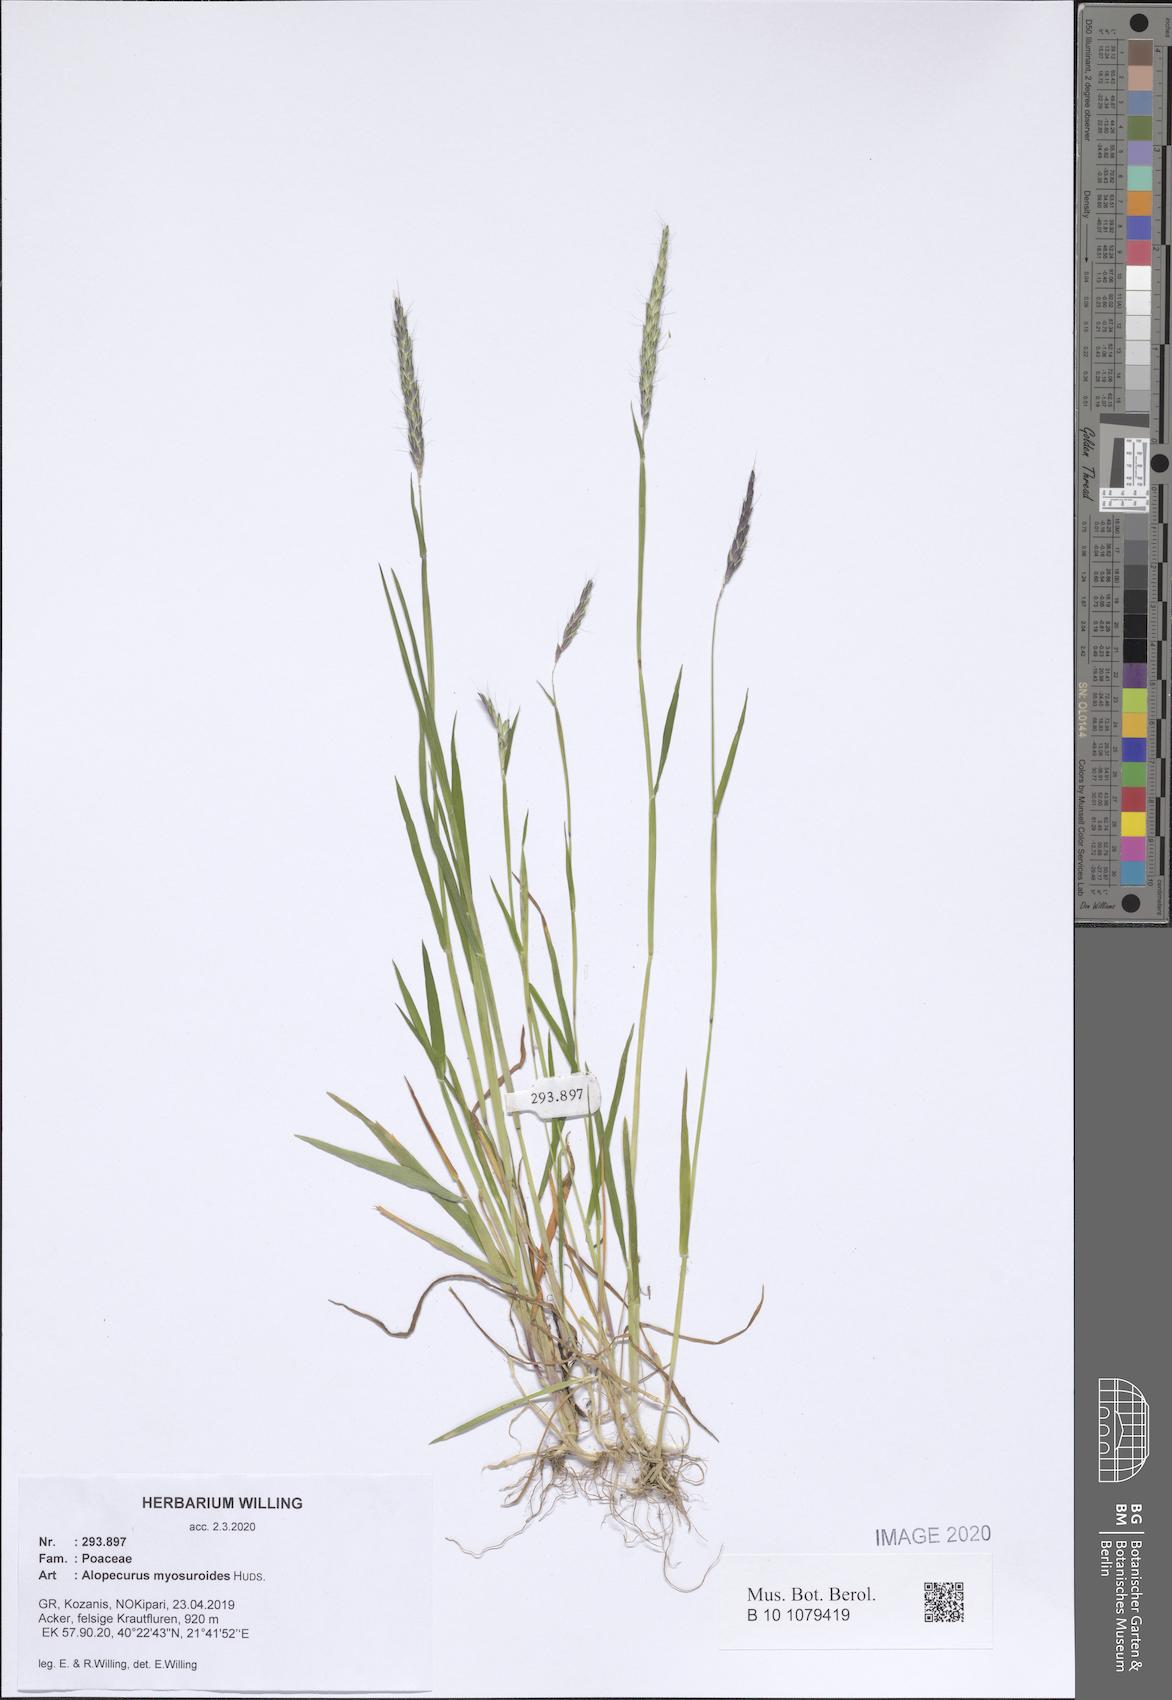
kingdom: Plantae
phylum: Tracheophyta
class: Liliopsida
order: Poales
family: Poaceae
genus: Alopecurus
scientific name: Alopecurus myosuroides
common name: Black-grass
